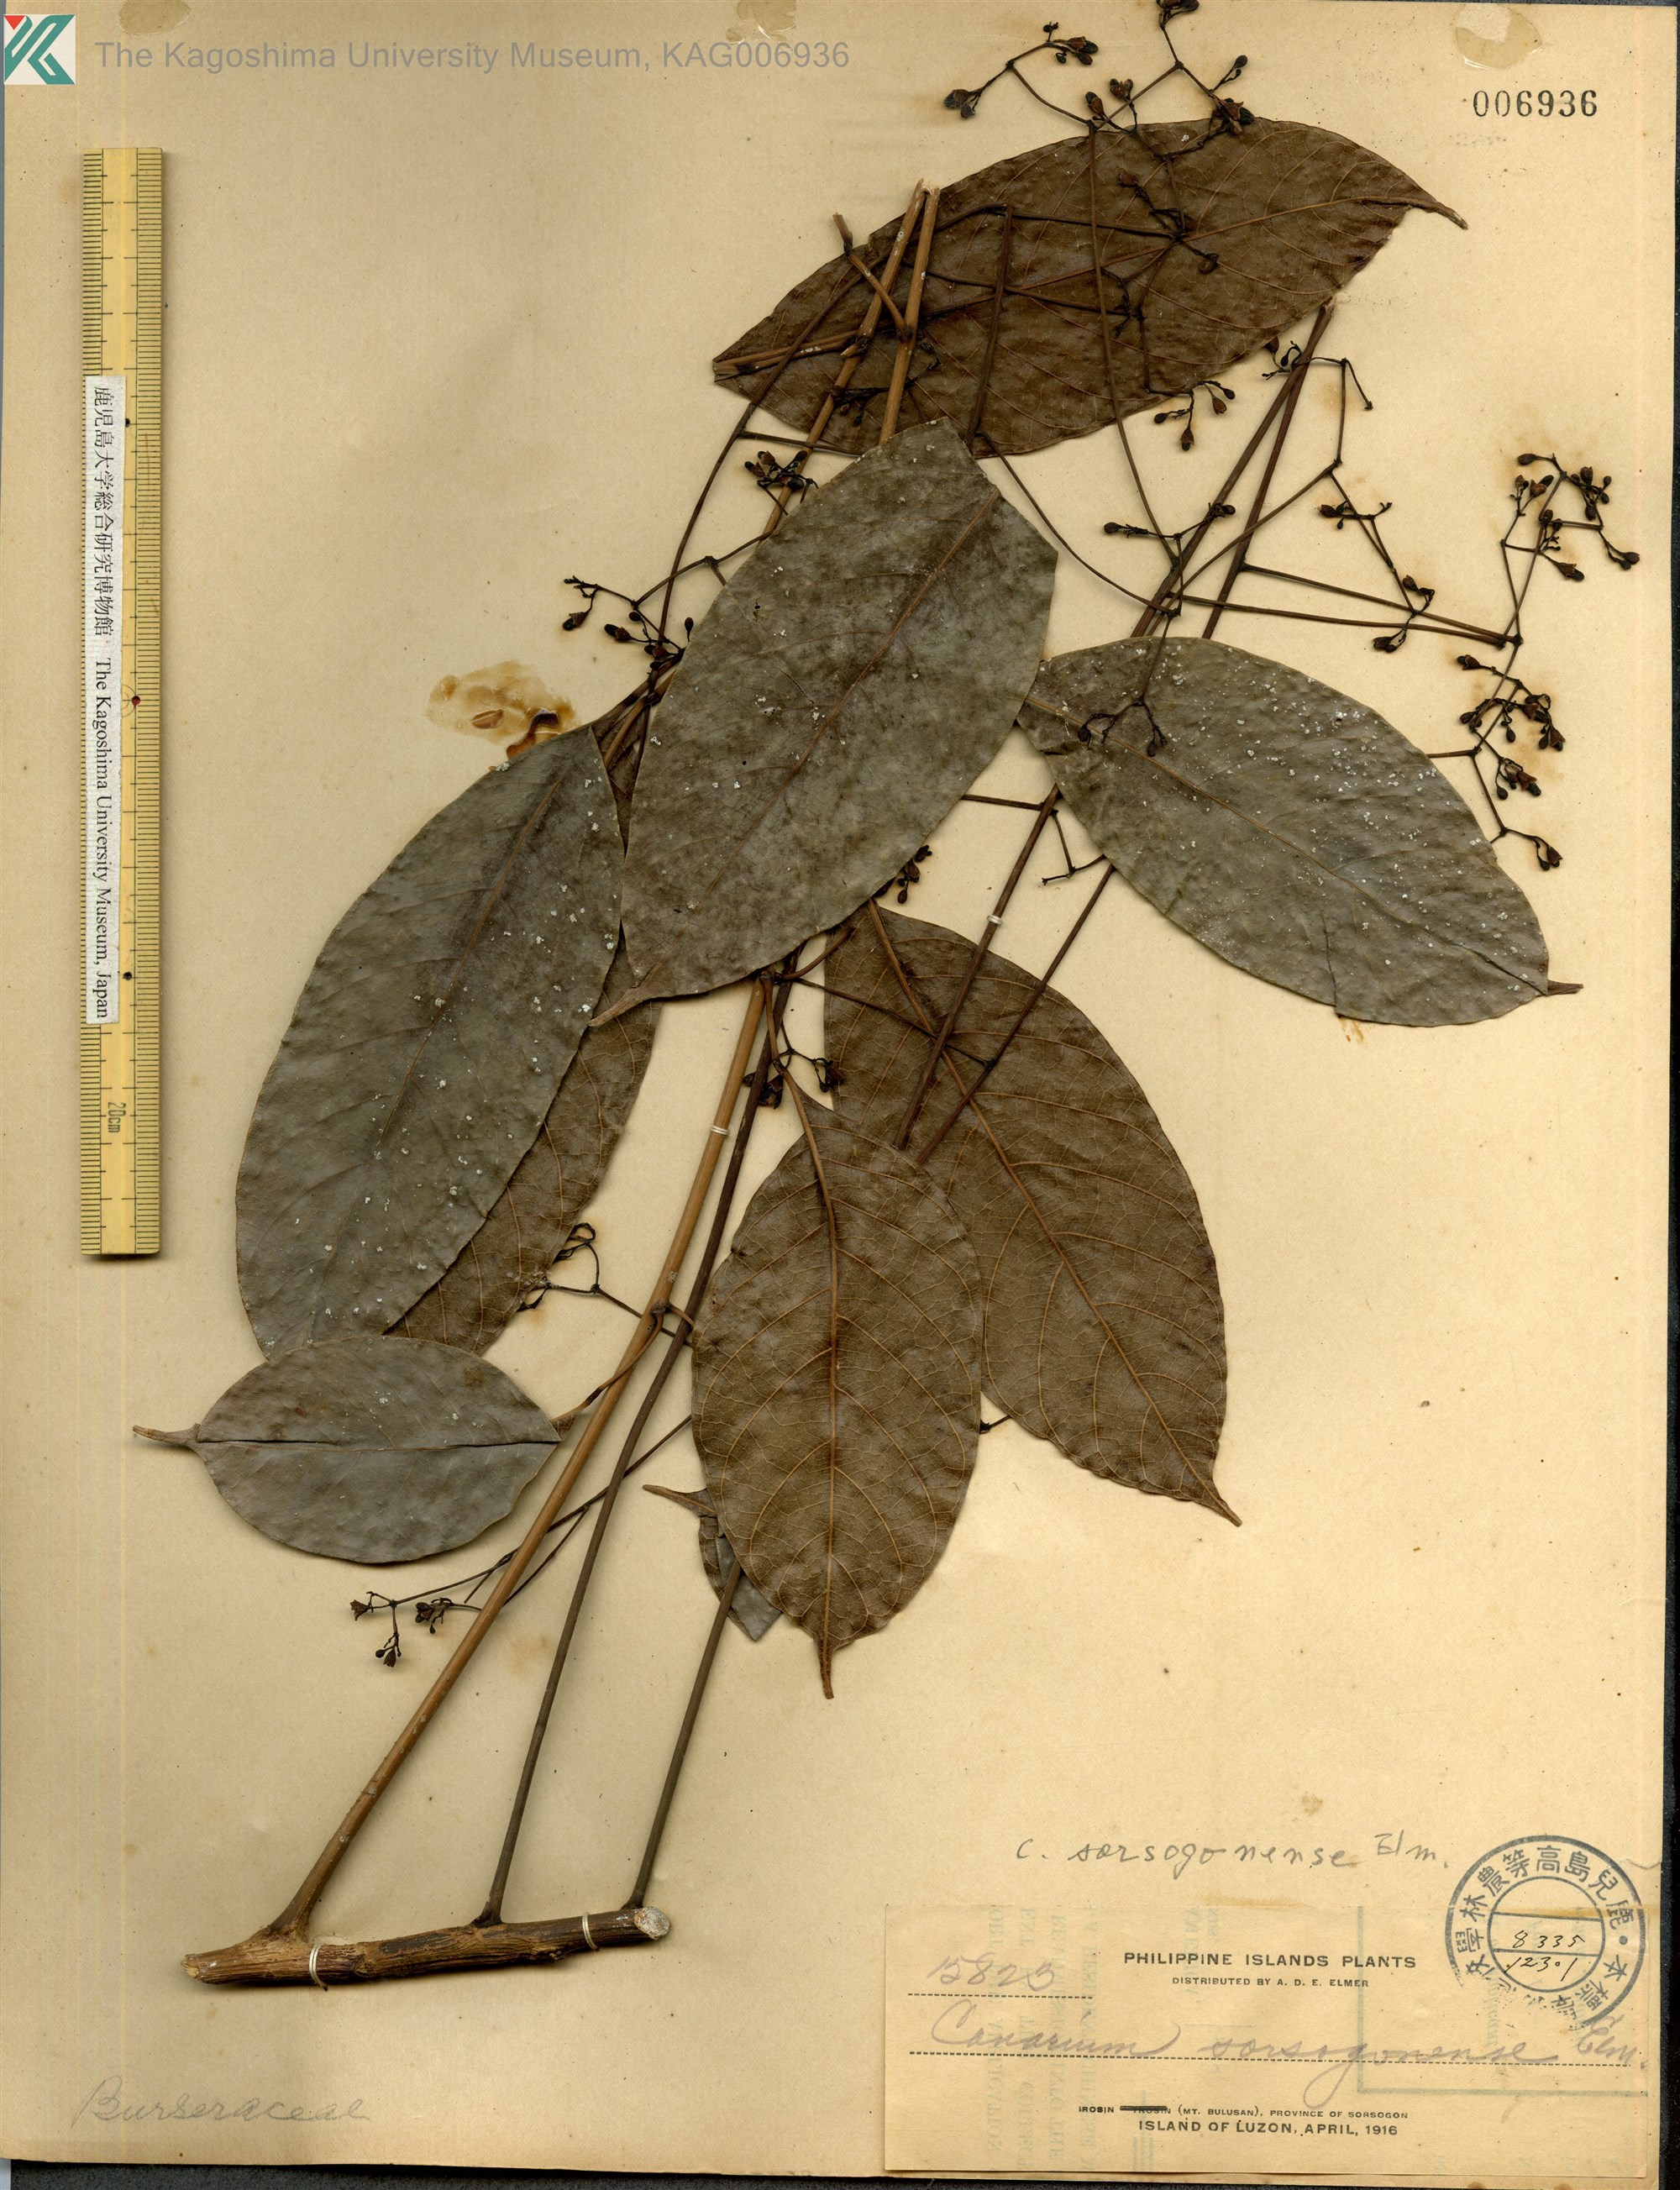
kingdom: Plantae
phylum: Tracheophyta
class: Magnoliopsida
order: Sapindales
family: Burseraceae
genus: Canarium
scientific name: Canarium
